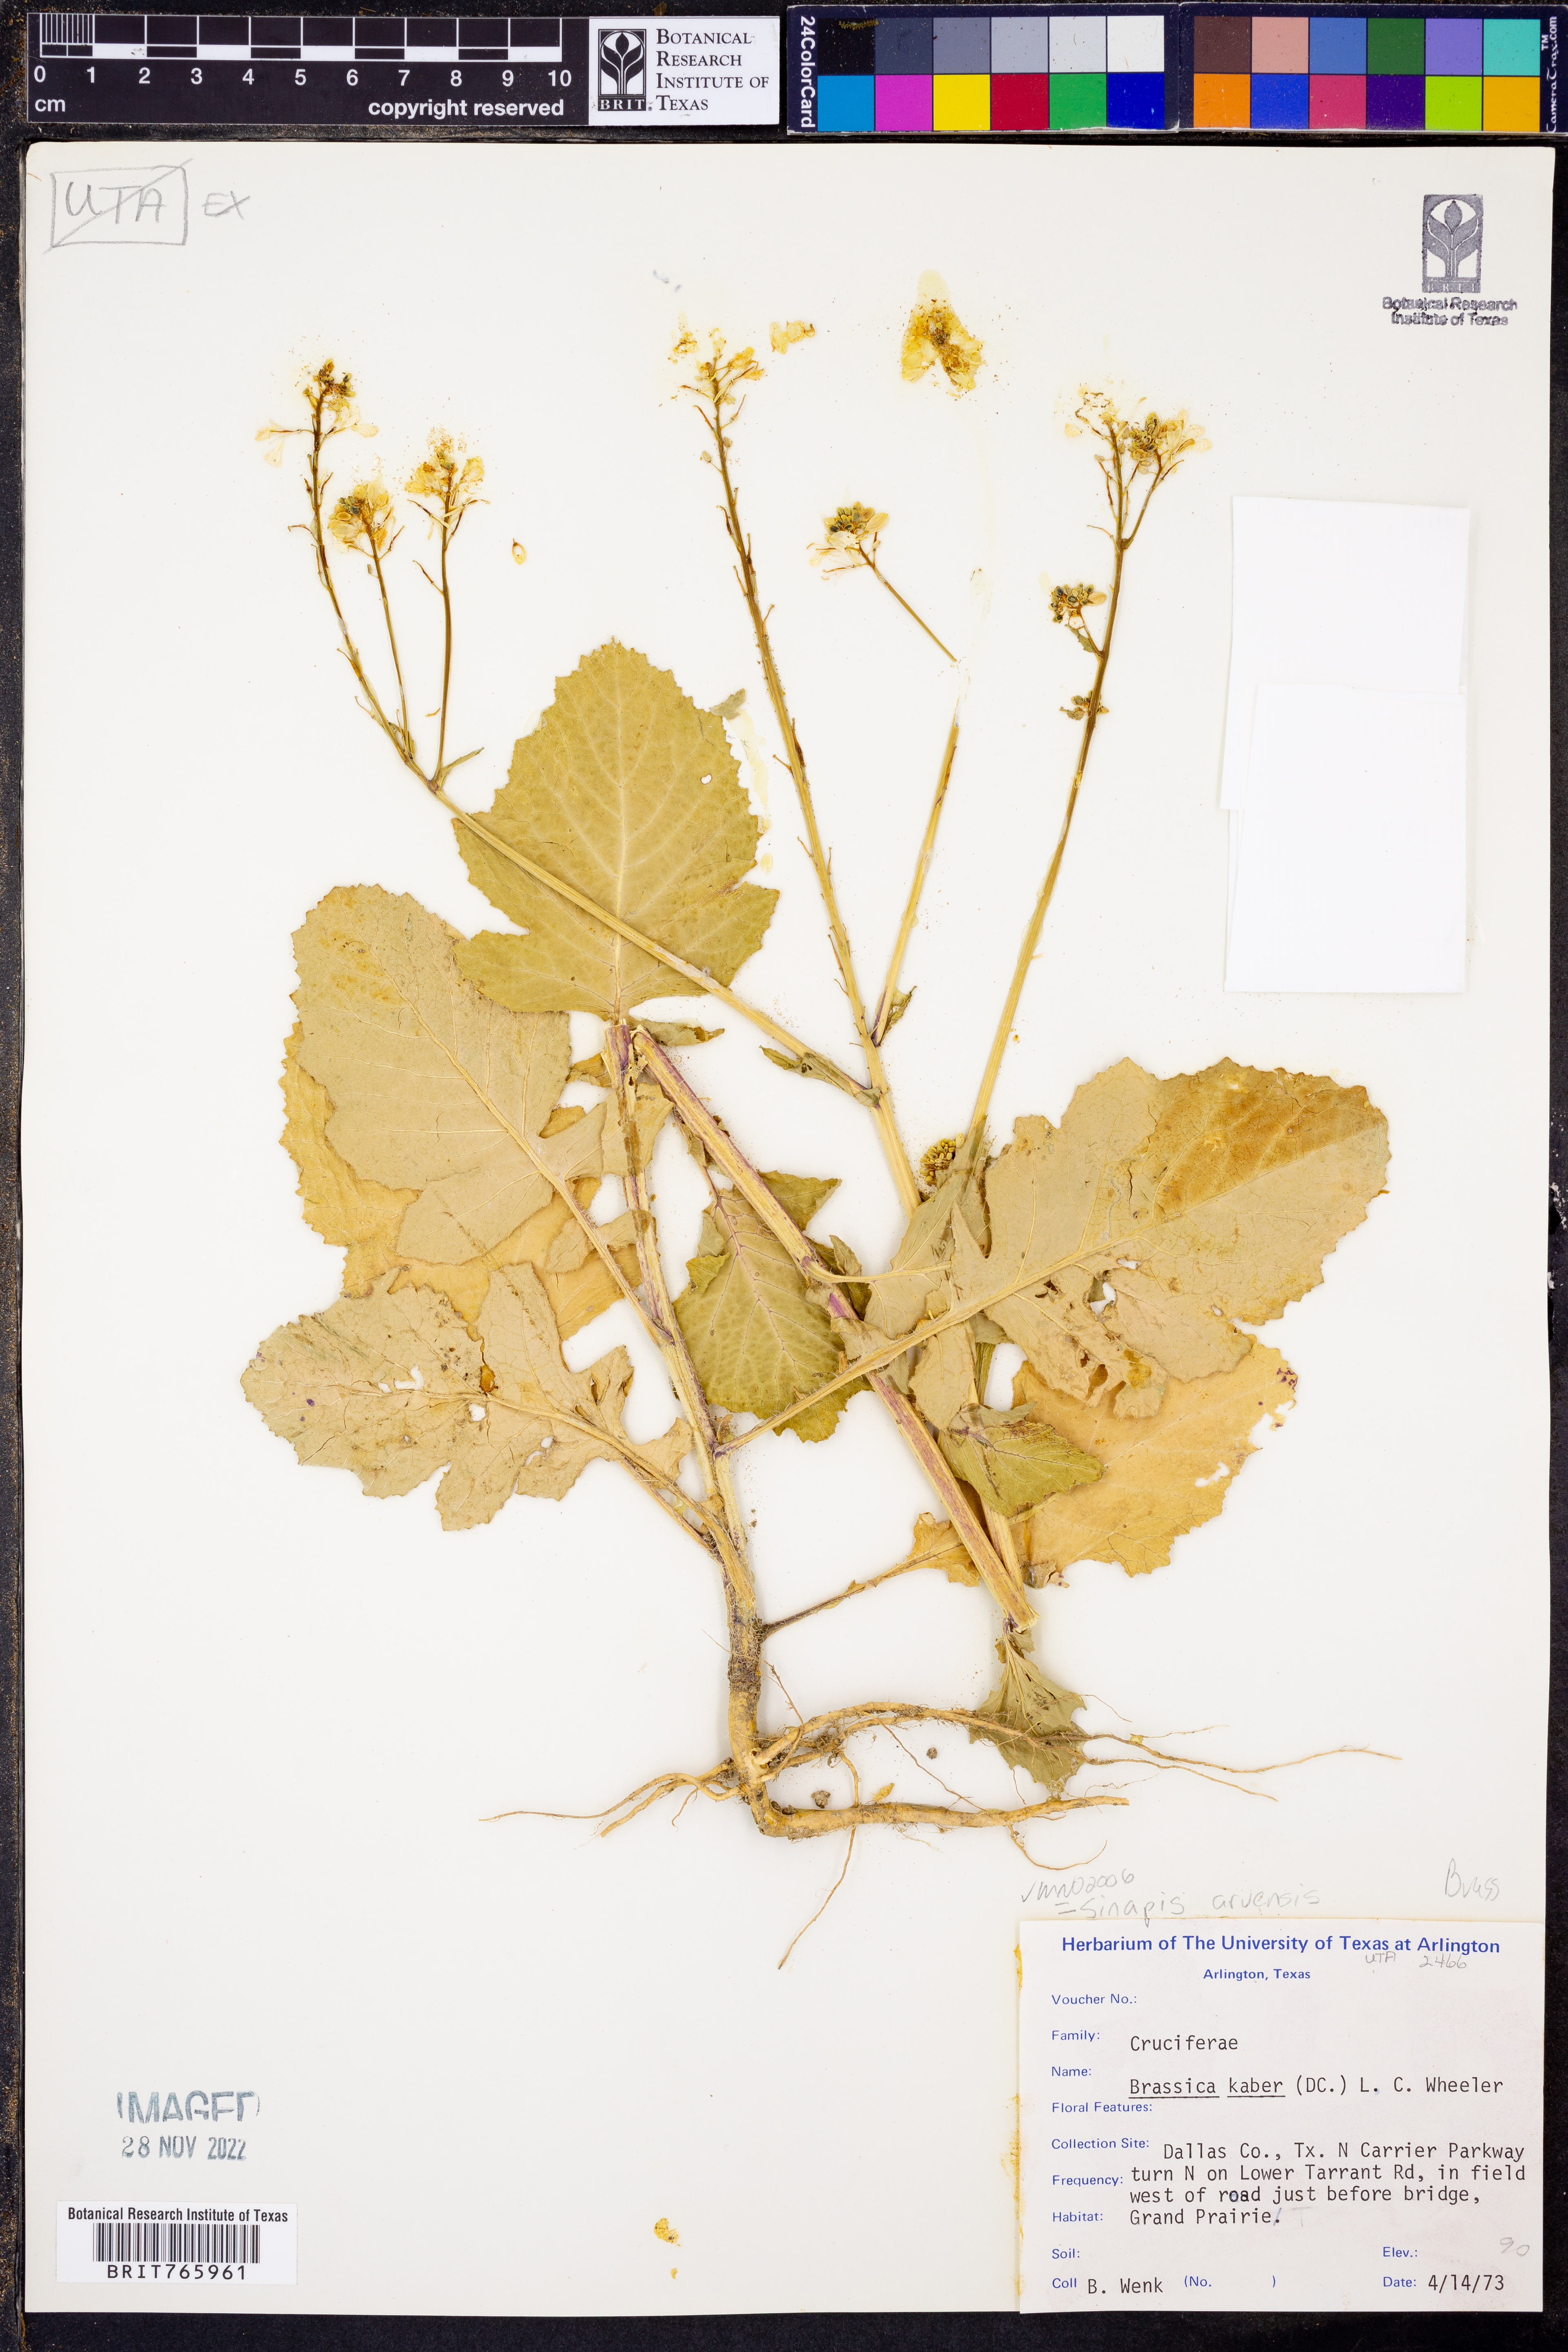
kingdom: Plantae
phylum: Tracheophyta
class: Magnoliopsida
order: Brassicales
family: Brassicaceae
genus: Sinapis
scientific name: Sinapis arvensis
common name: Charlock
